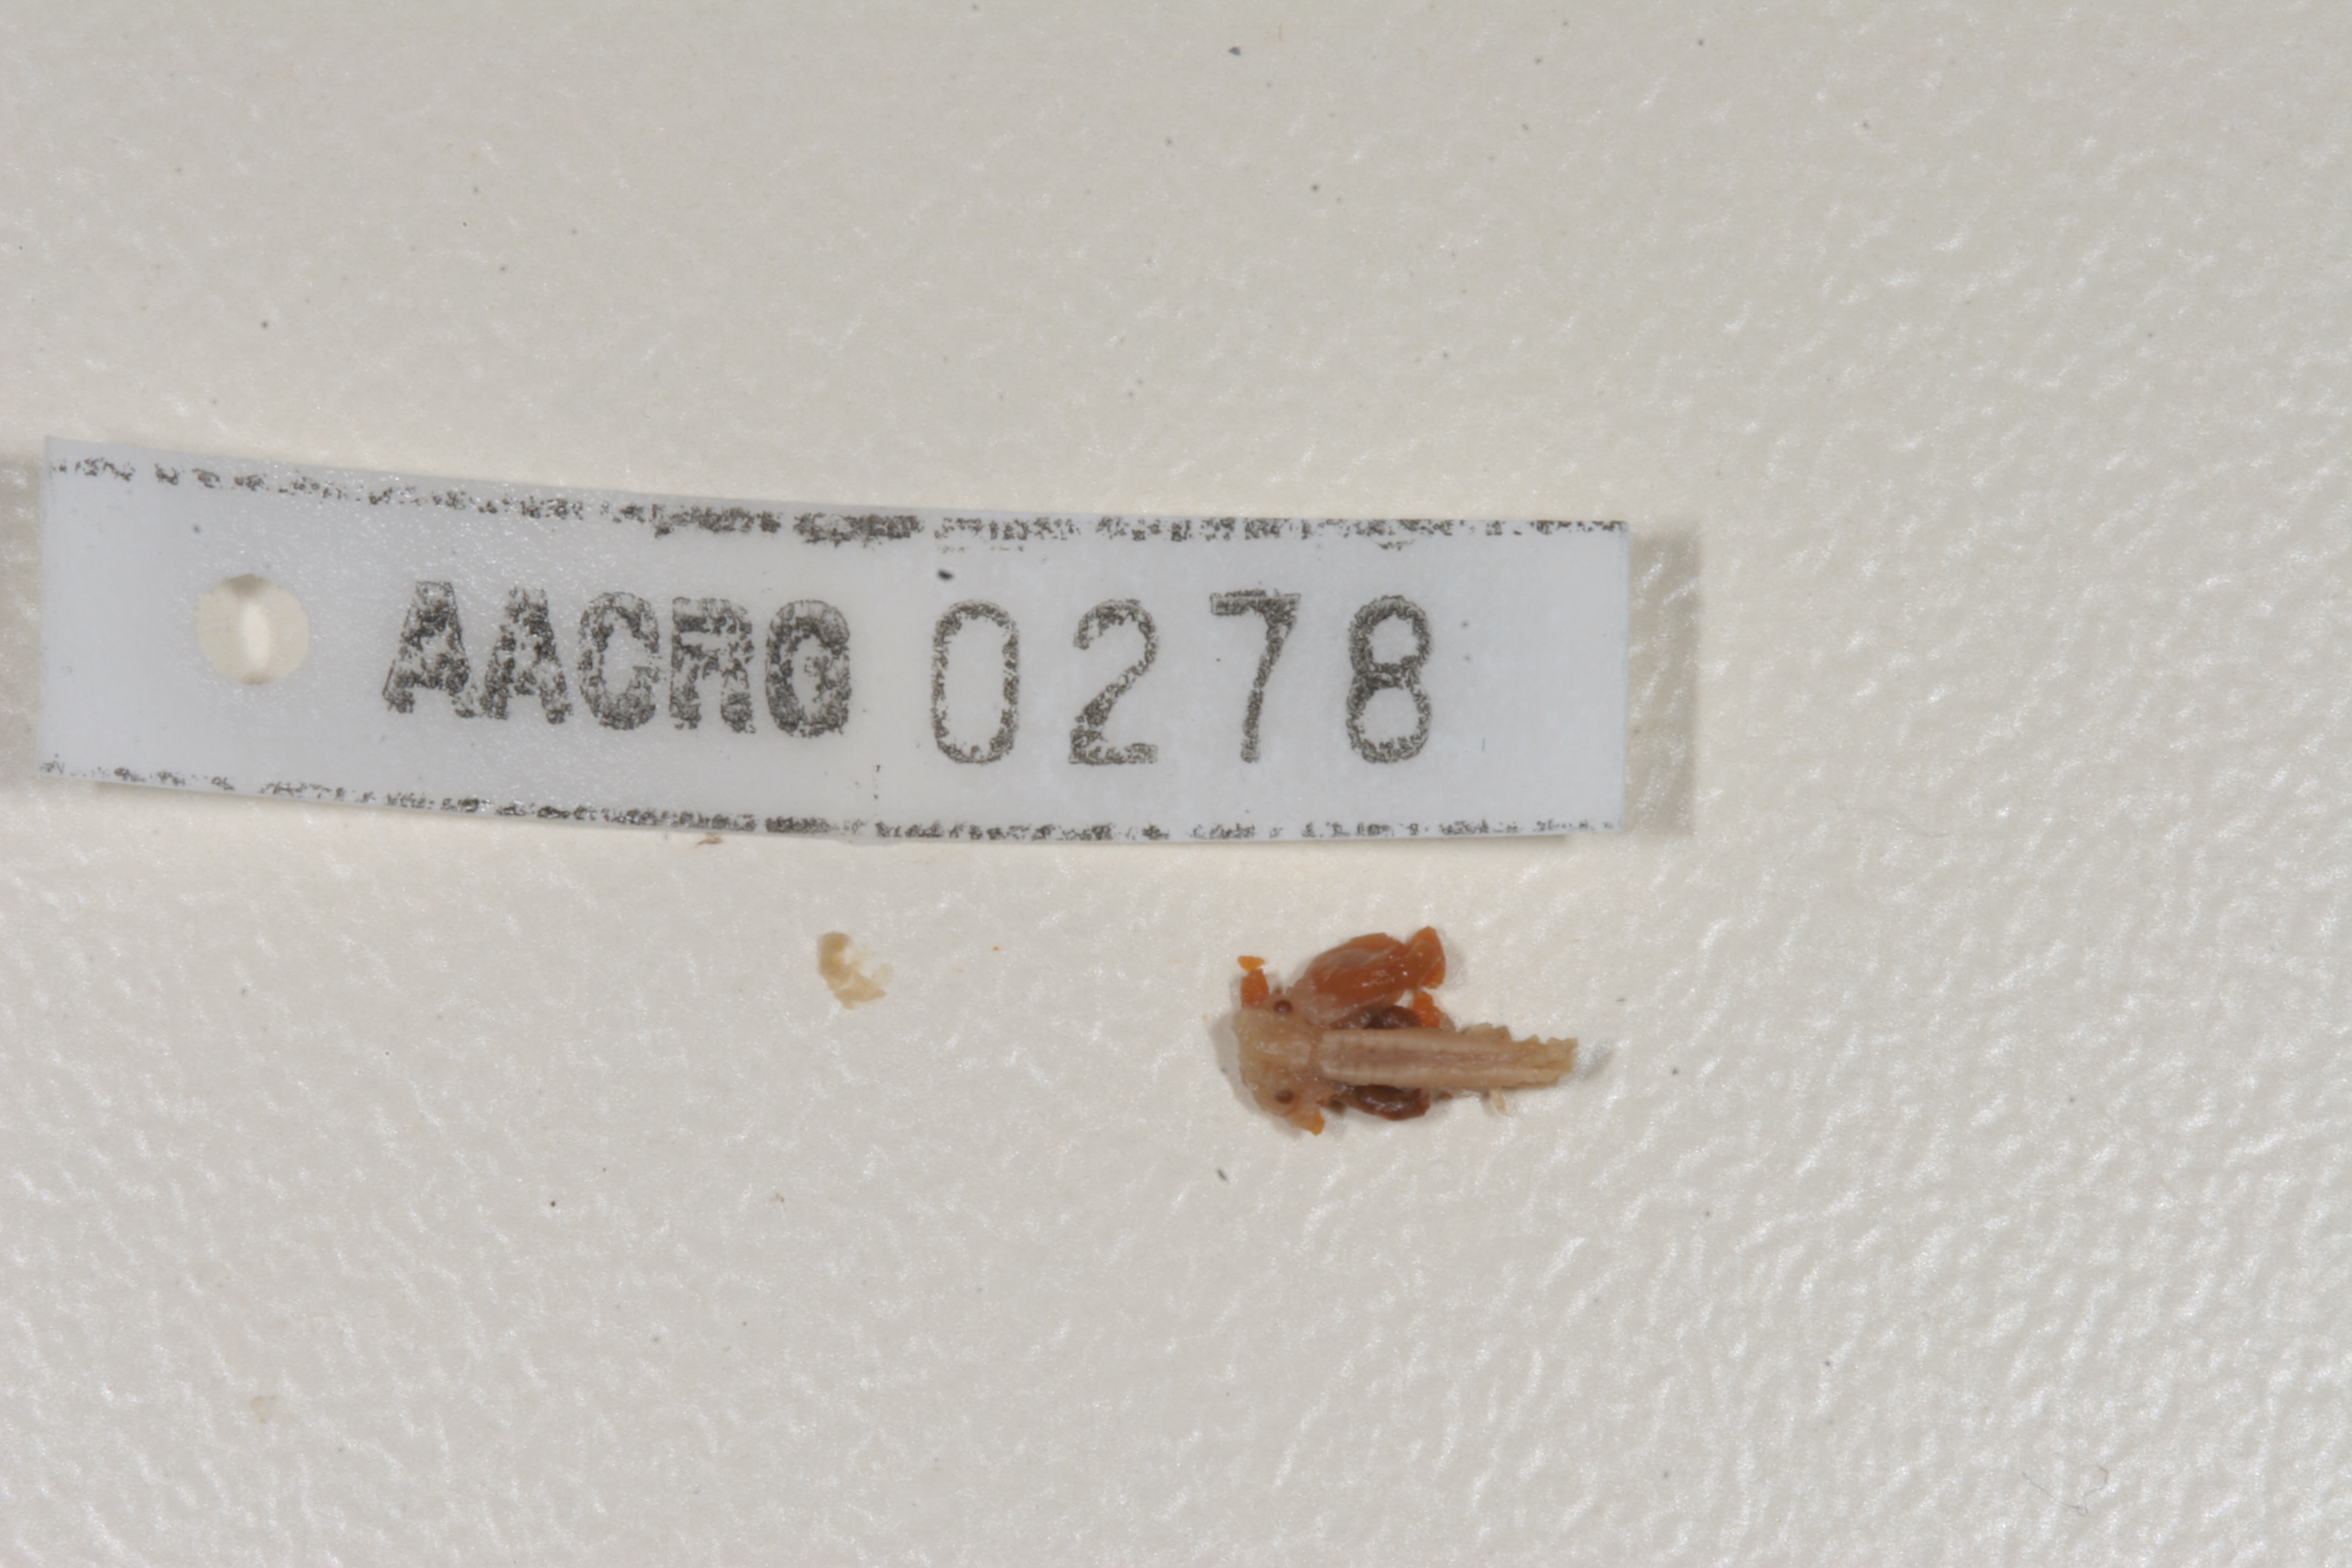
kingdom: Animalia
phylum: Chordata
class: Amphibia
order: Anura
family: Pyxicephalidae
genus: Cacosternum
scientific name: Cacosternum boettgeri
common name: Boettger's frog
